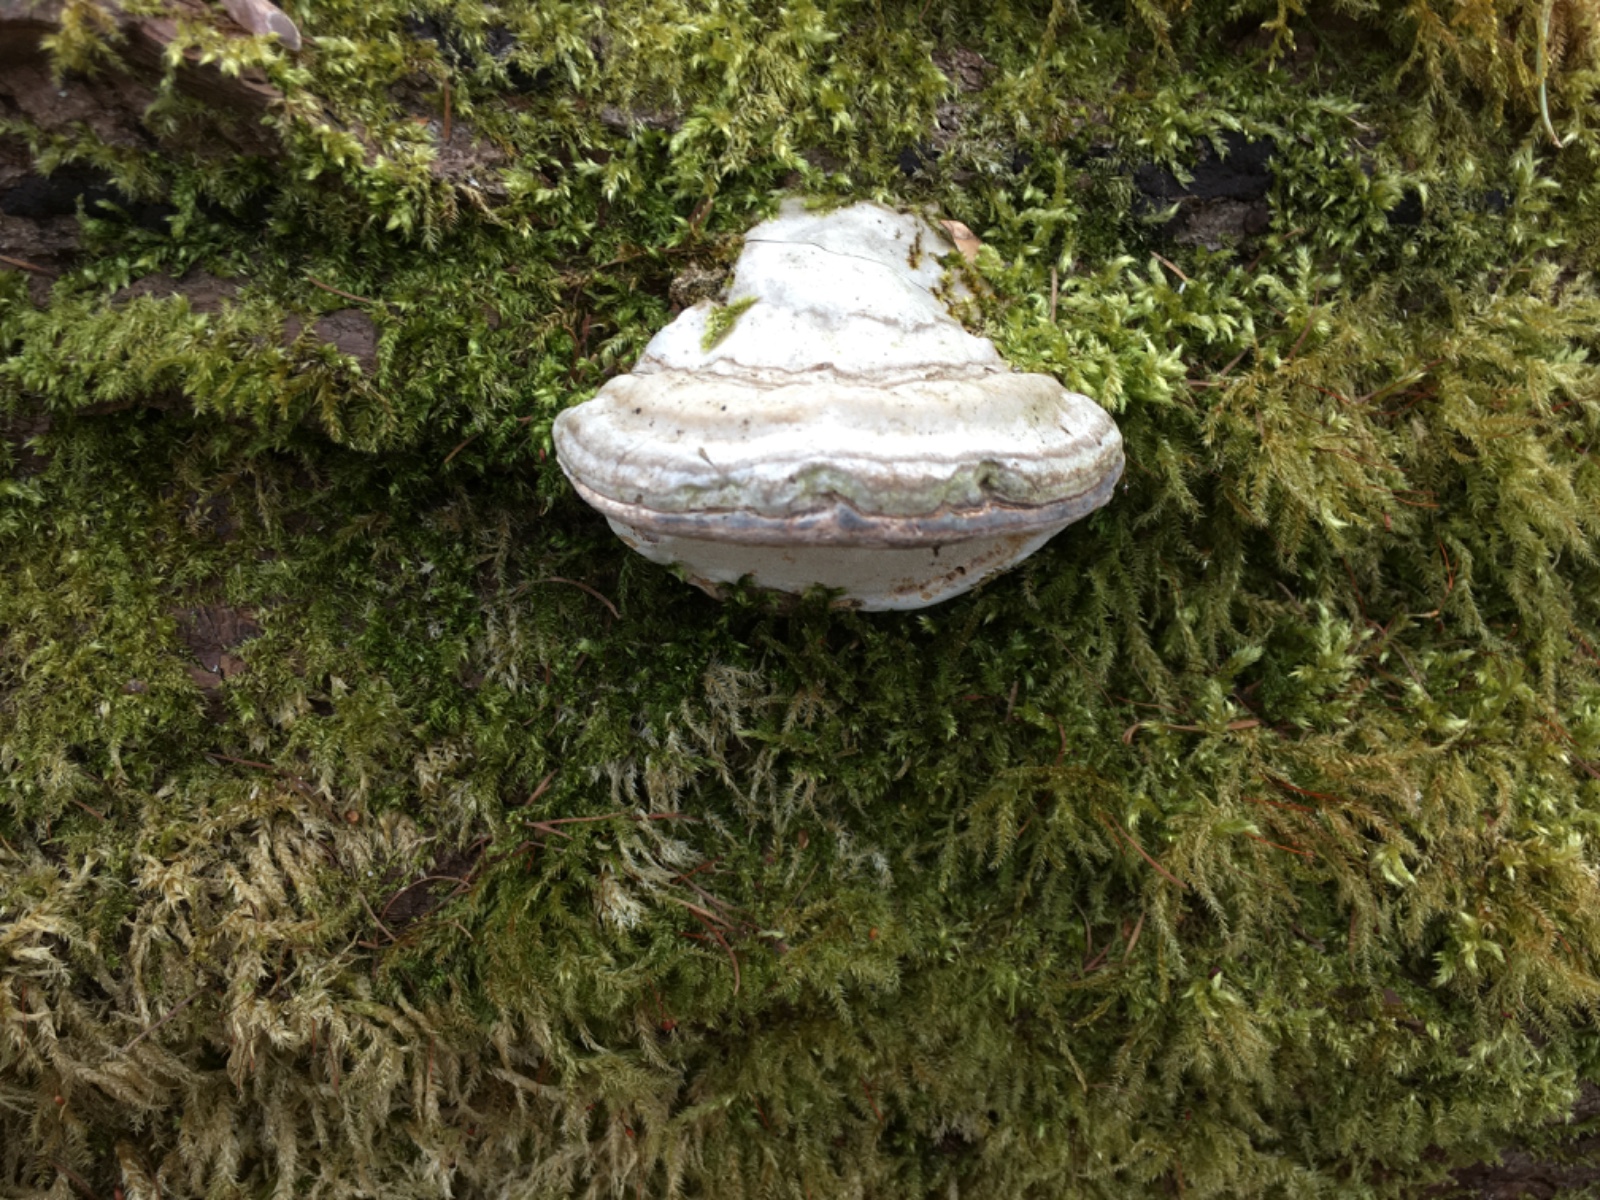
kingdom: Fungi
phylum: Basidiomycota
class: Agaricomycetes
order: Polyporales
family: Polyporaceae
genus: Fomes
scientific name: Fomes fomentarius
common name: tøndersvamp
